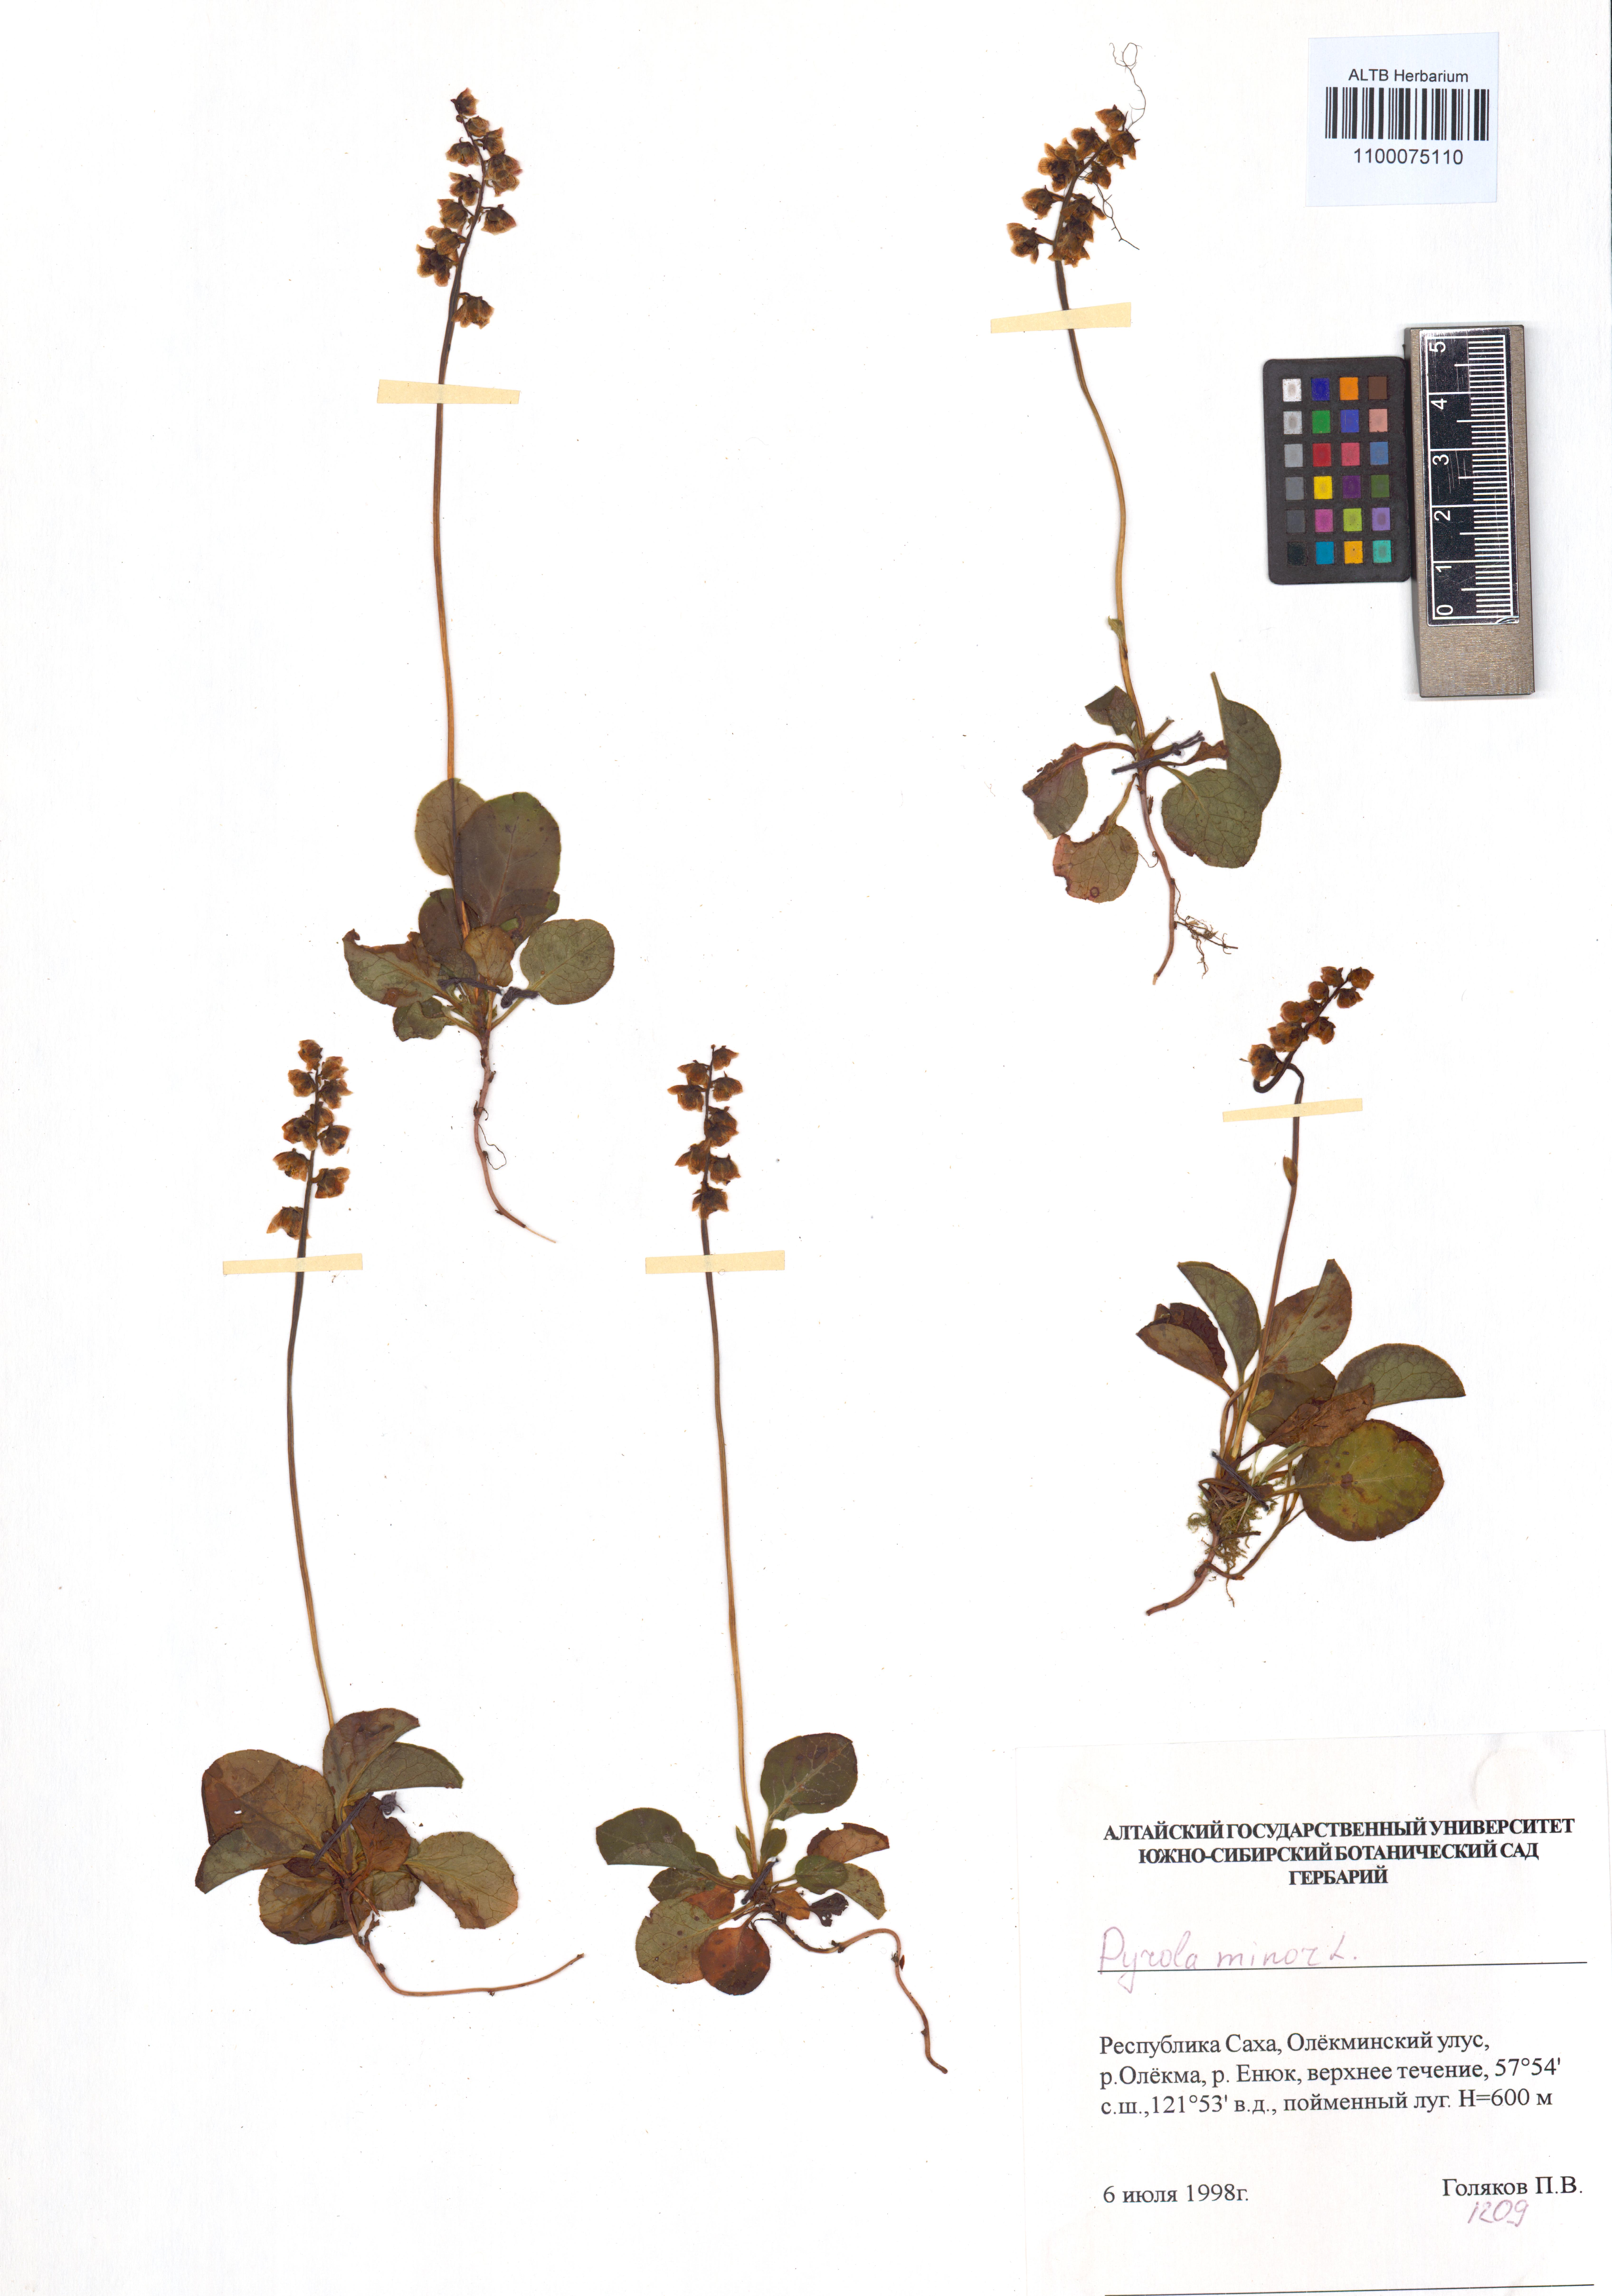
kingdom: Plantae
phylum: Tracheophyta
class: Magnoliopsida
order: Ericales
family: Ericaceae
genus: Pyrola
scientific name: Pyrola minor
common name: Common wintergreen
